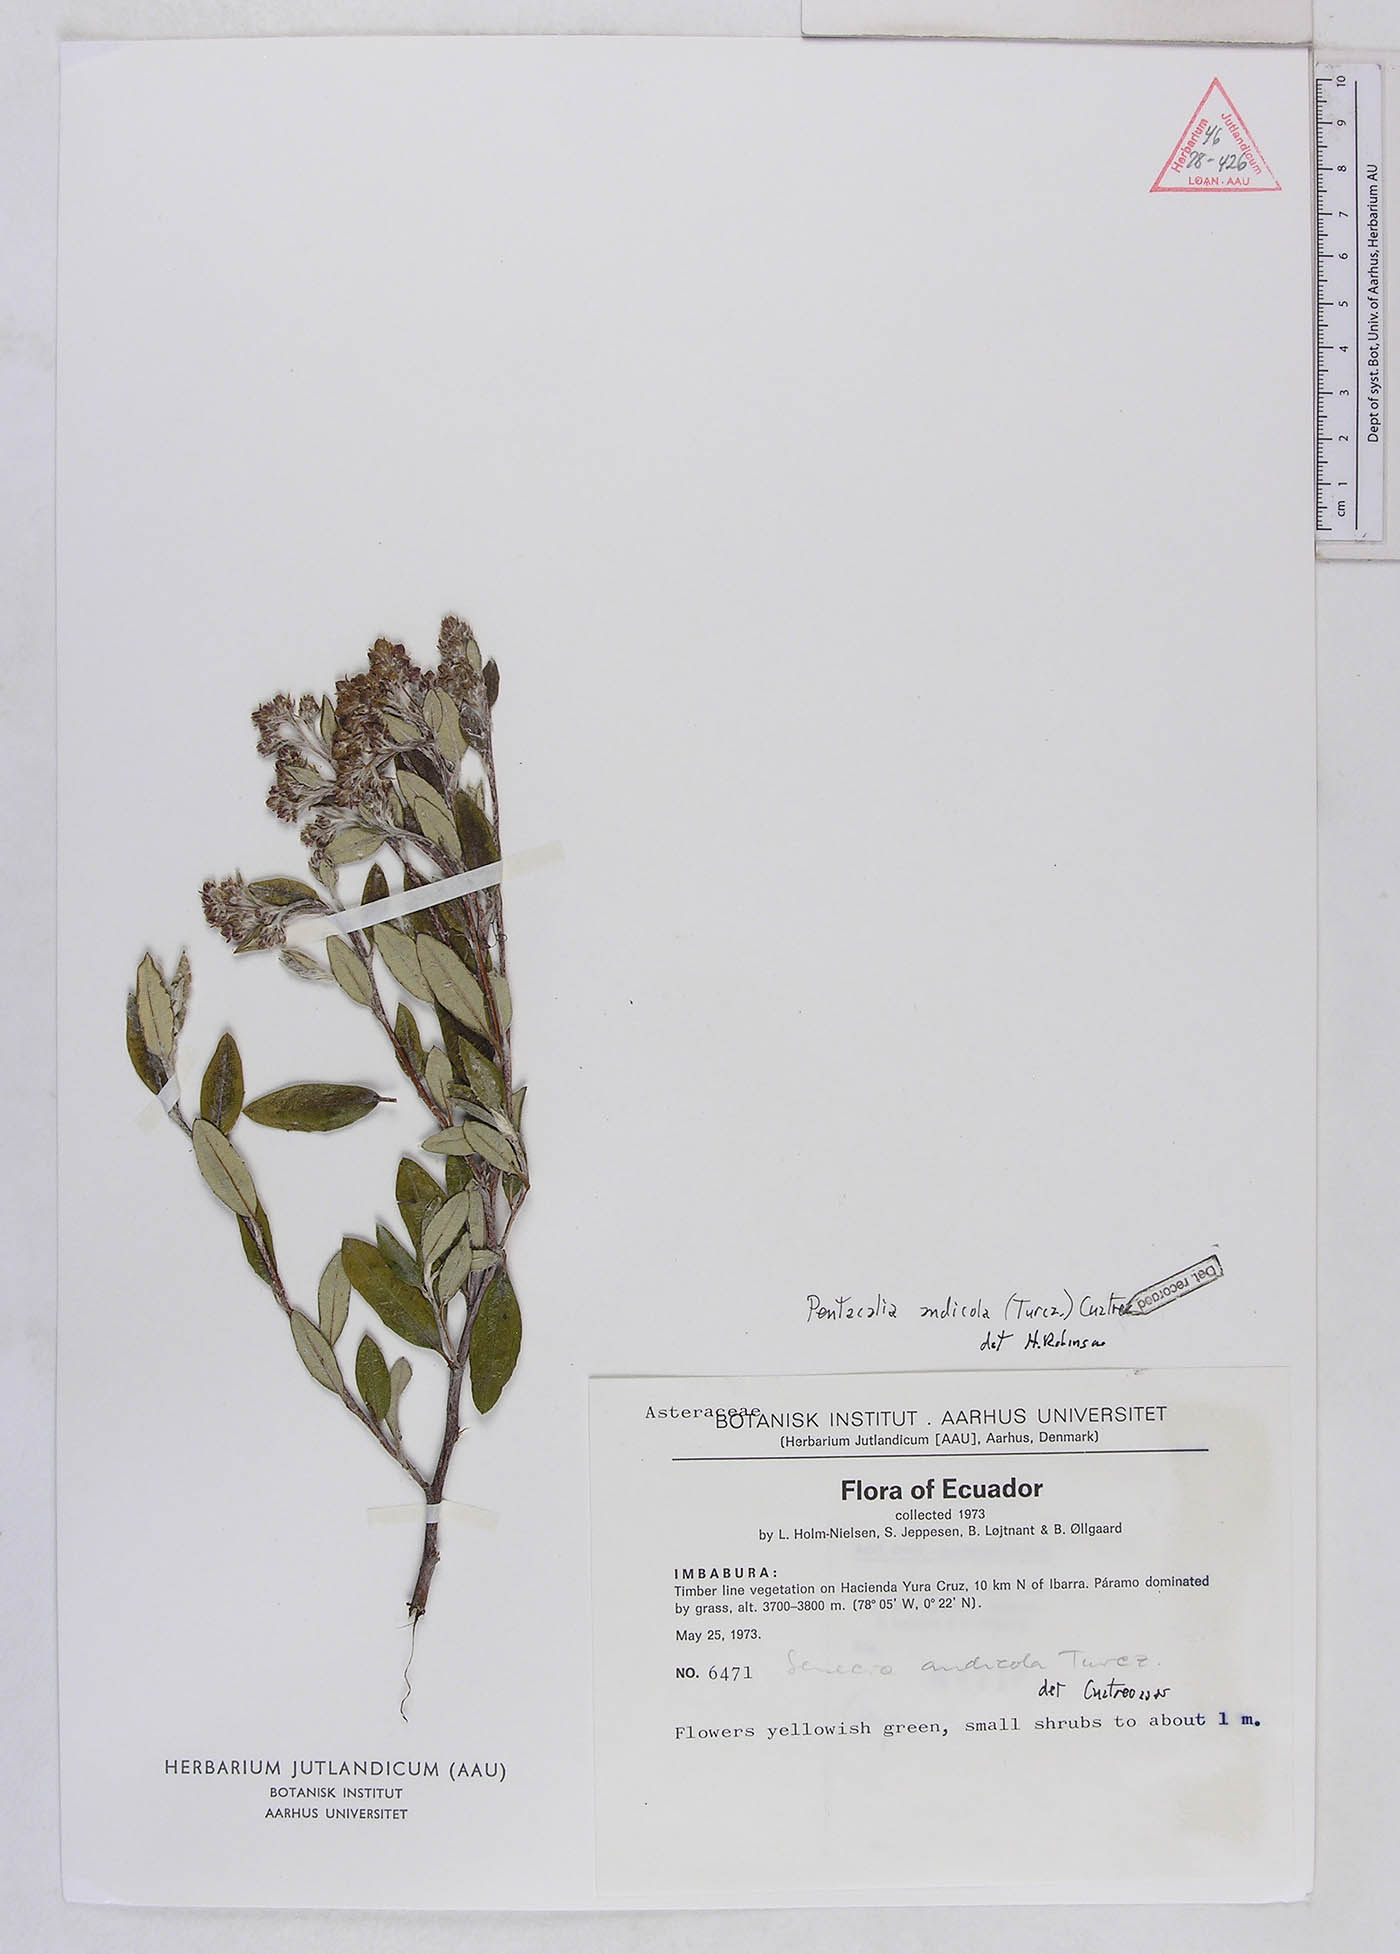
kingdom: Plantae
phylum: Tracheophyta
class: Magnoliopsida
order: Asterales
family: Asteraceae
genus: Monticalia
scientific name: Monticalia andicola
